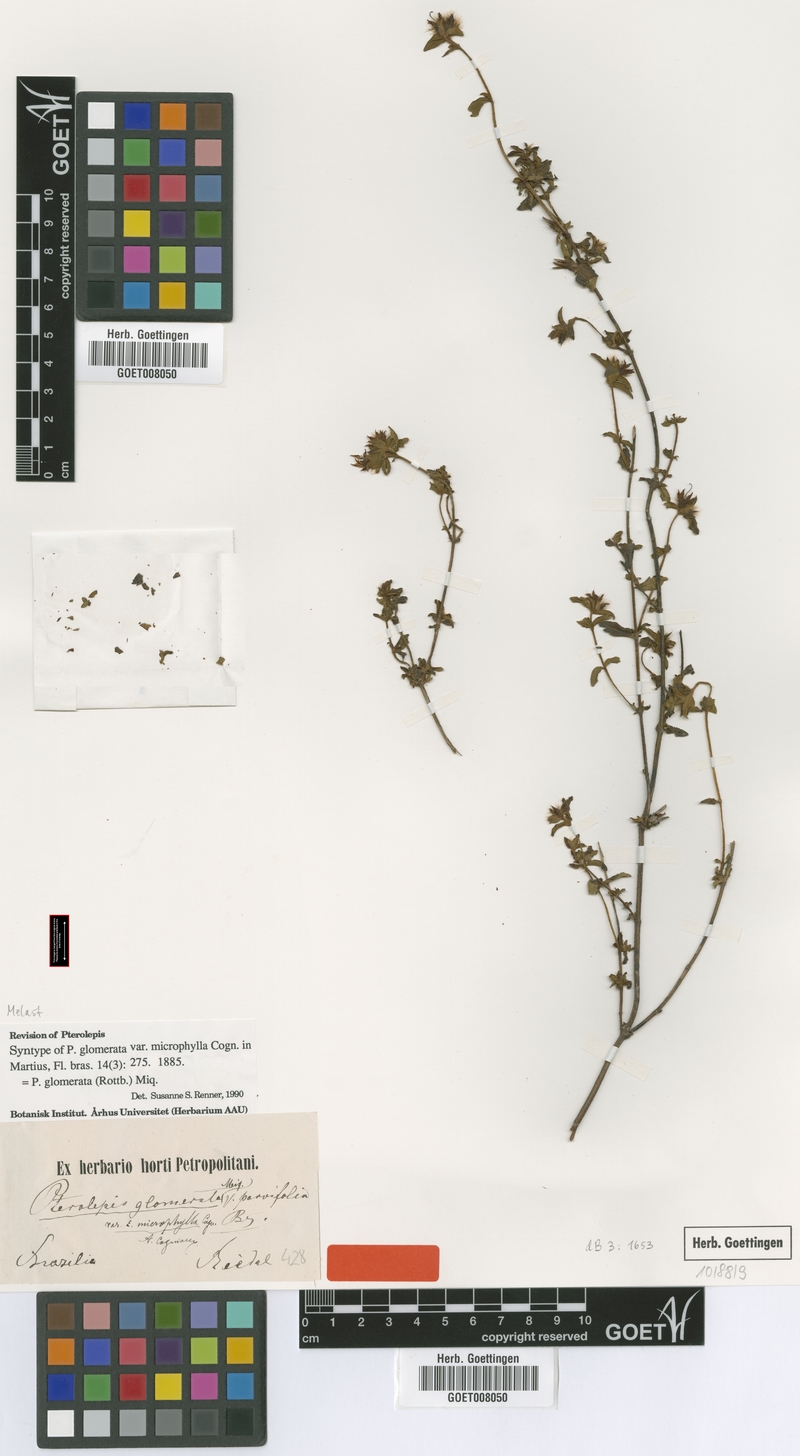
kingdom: Plantae
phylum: Tracheophyta
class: Magnoliopsida
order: Myrtales
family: Melastomataceae
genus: Pterolepis
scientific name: Pterolepis glomerata
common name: False meadowbeauty
